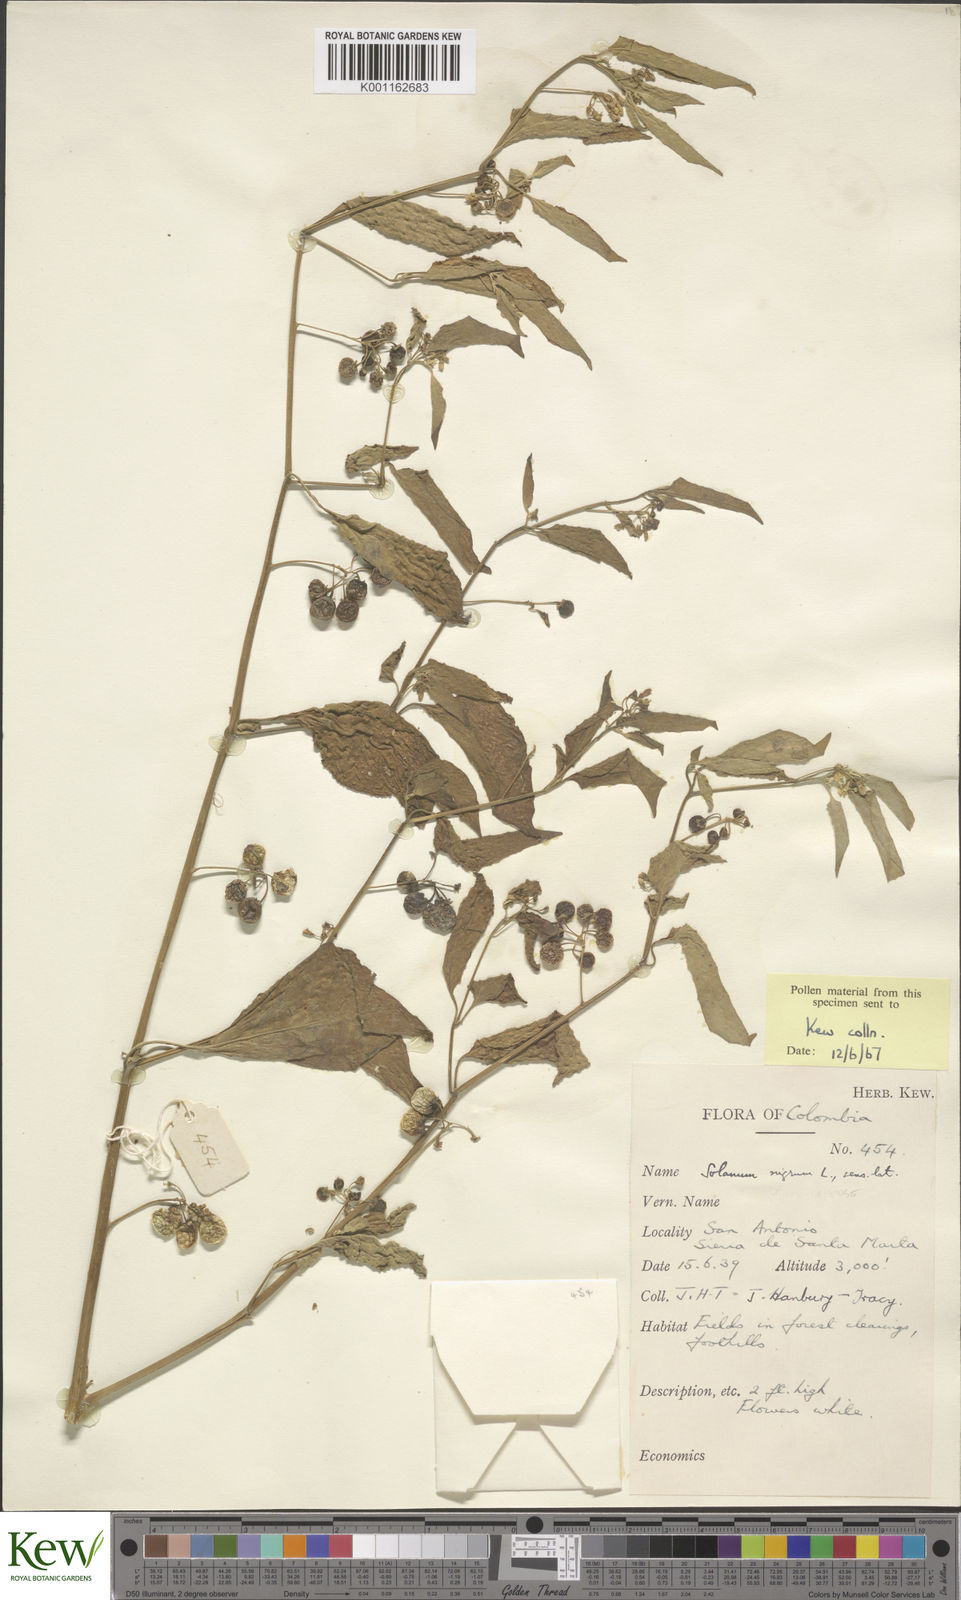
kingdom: Plantae
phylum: Tracheophyta
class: Magnoliopsida
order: Solanales
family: Solanaceae
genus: Solanum
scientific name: Solanum nigrescens
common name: Divine nightshade
